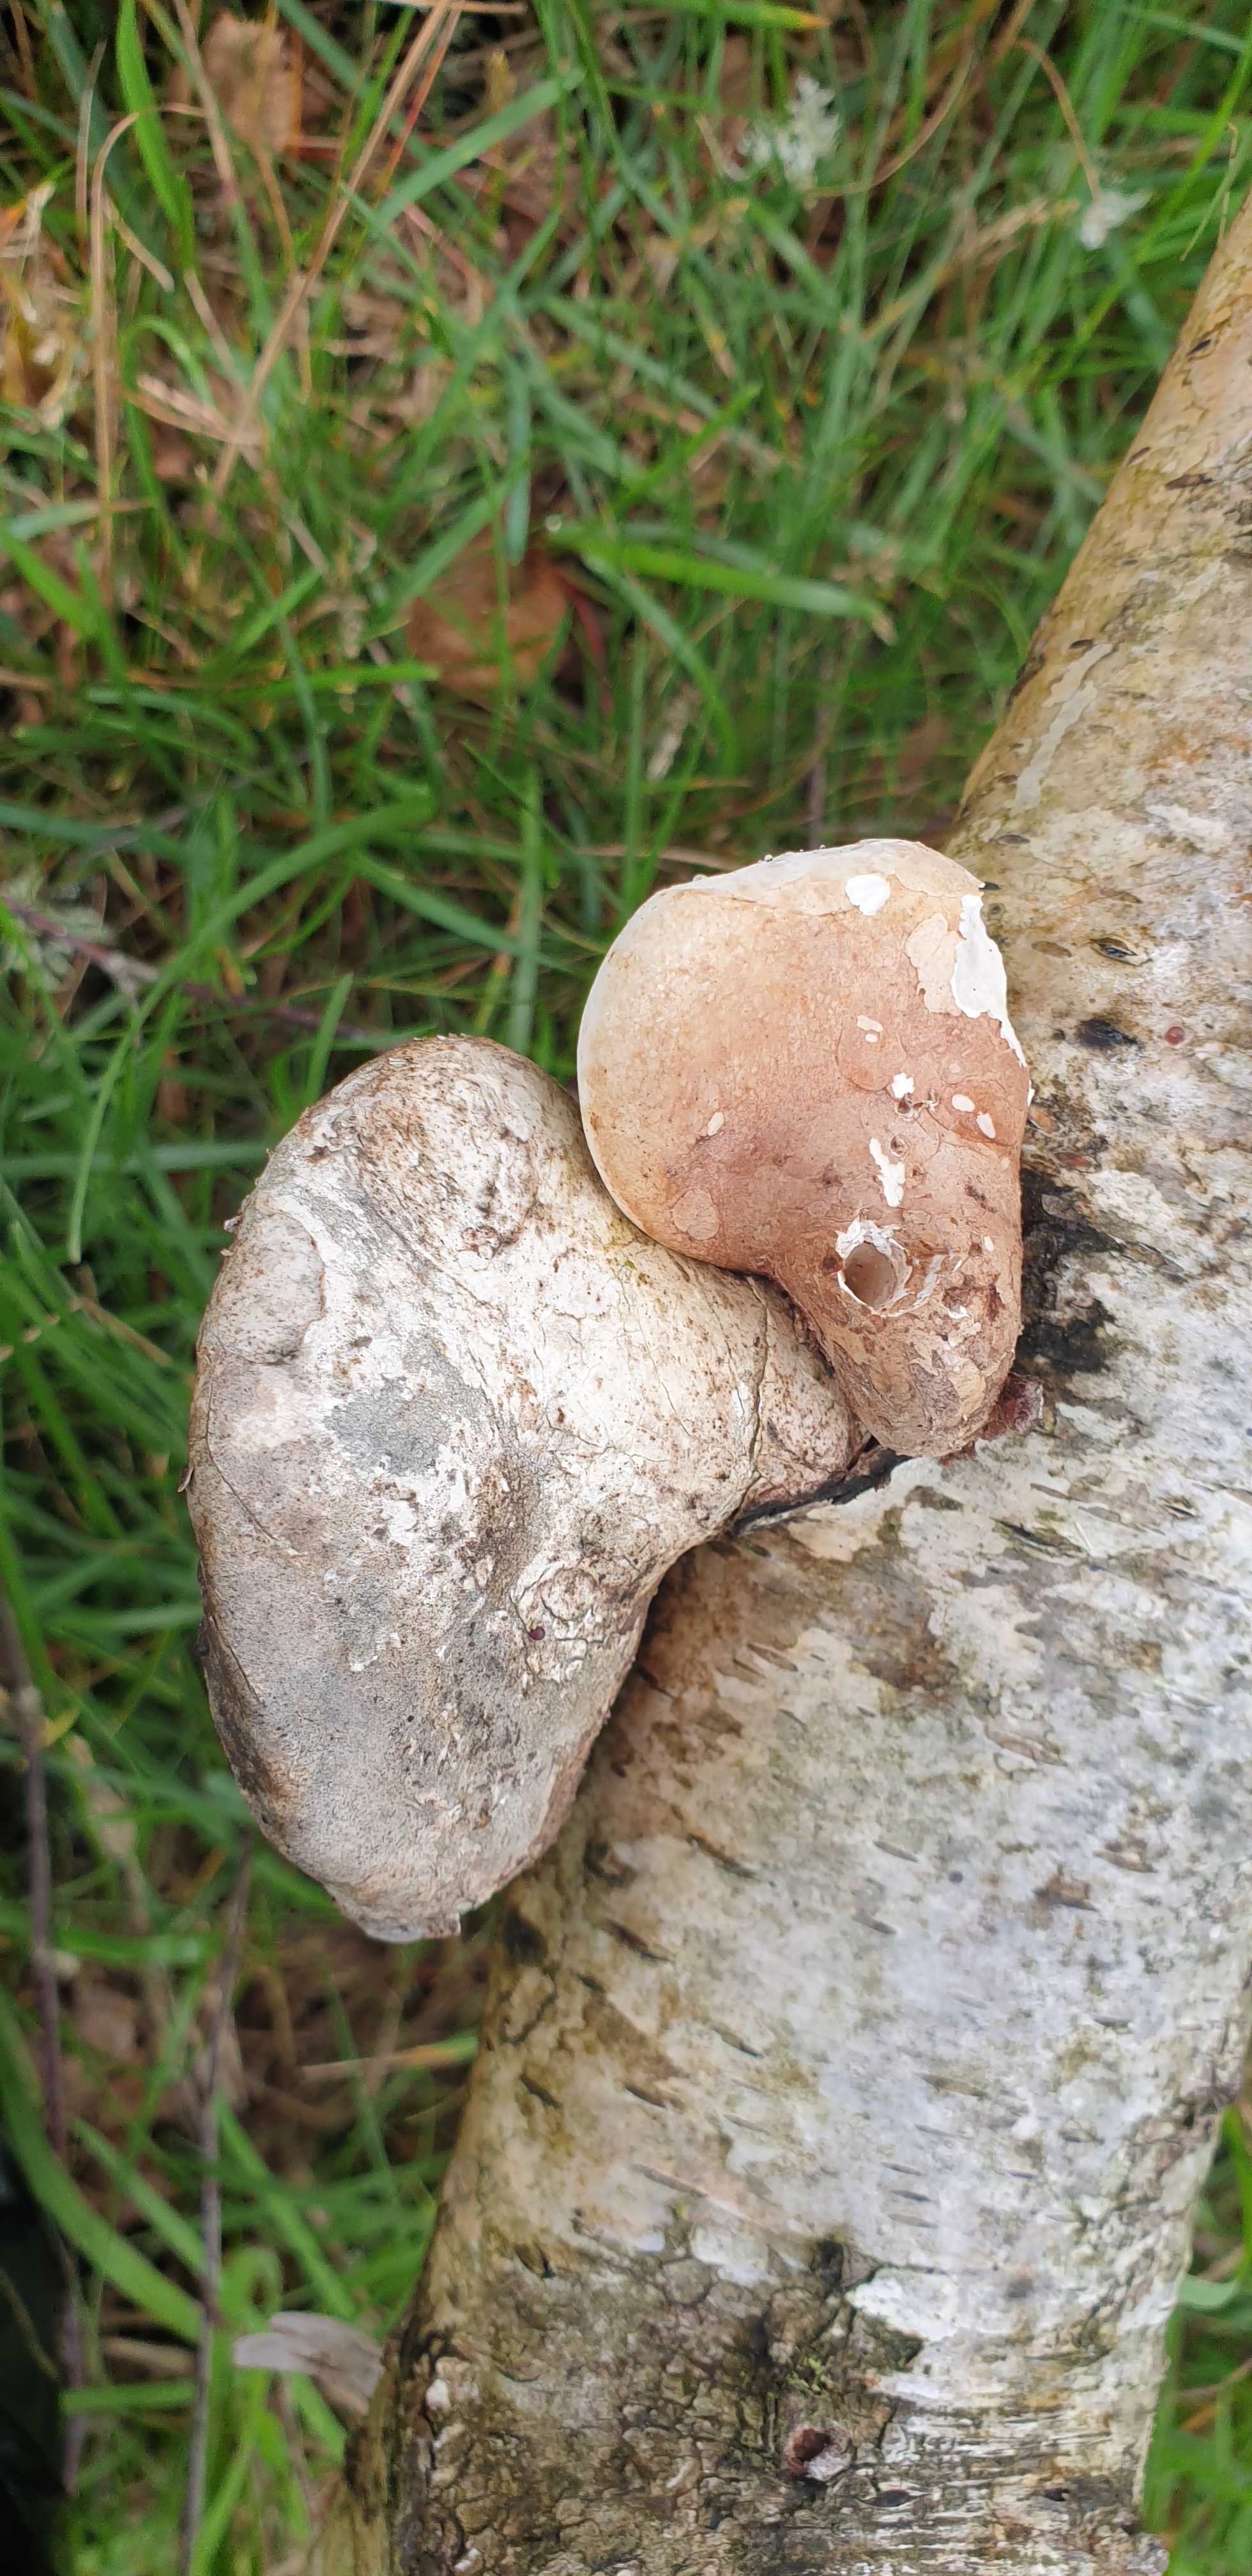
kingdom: Fungi
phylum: Basidiomycota
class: Agaricomycetes
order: Polyporales
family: Fomitopsidaceae
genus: Fomitopsis
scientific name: Fomitopsis betulina
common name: birkeporesvamp
